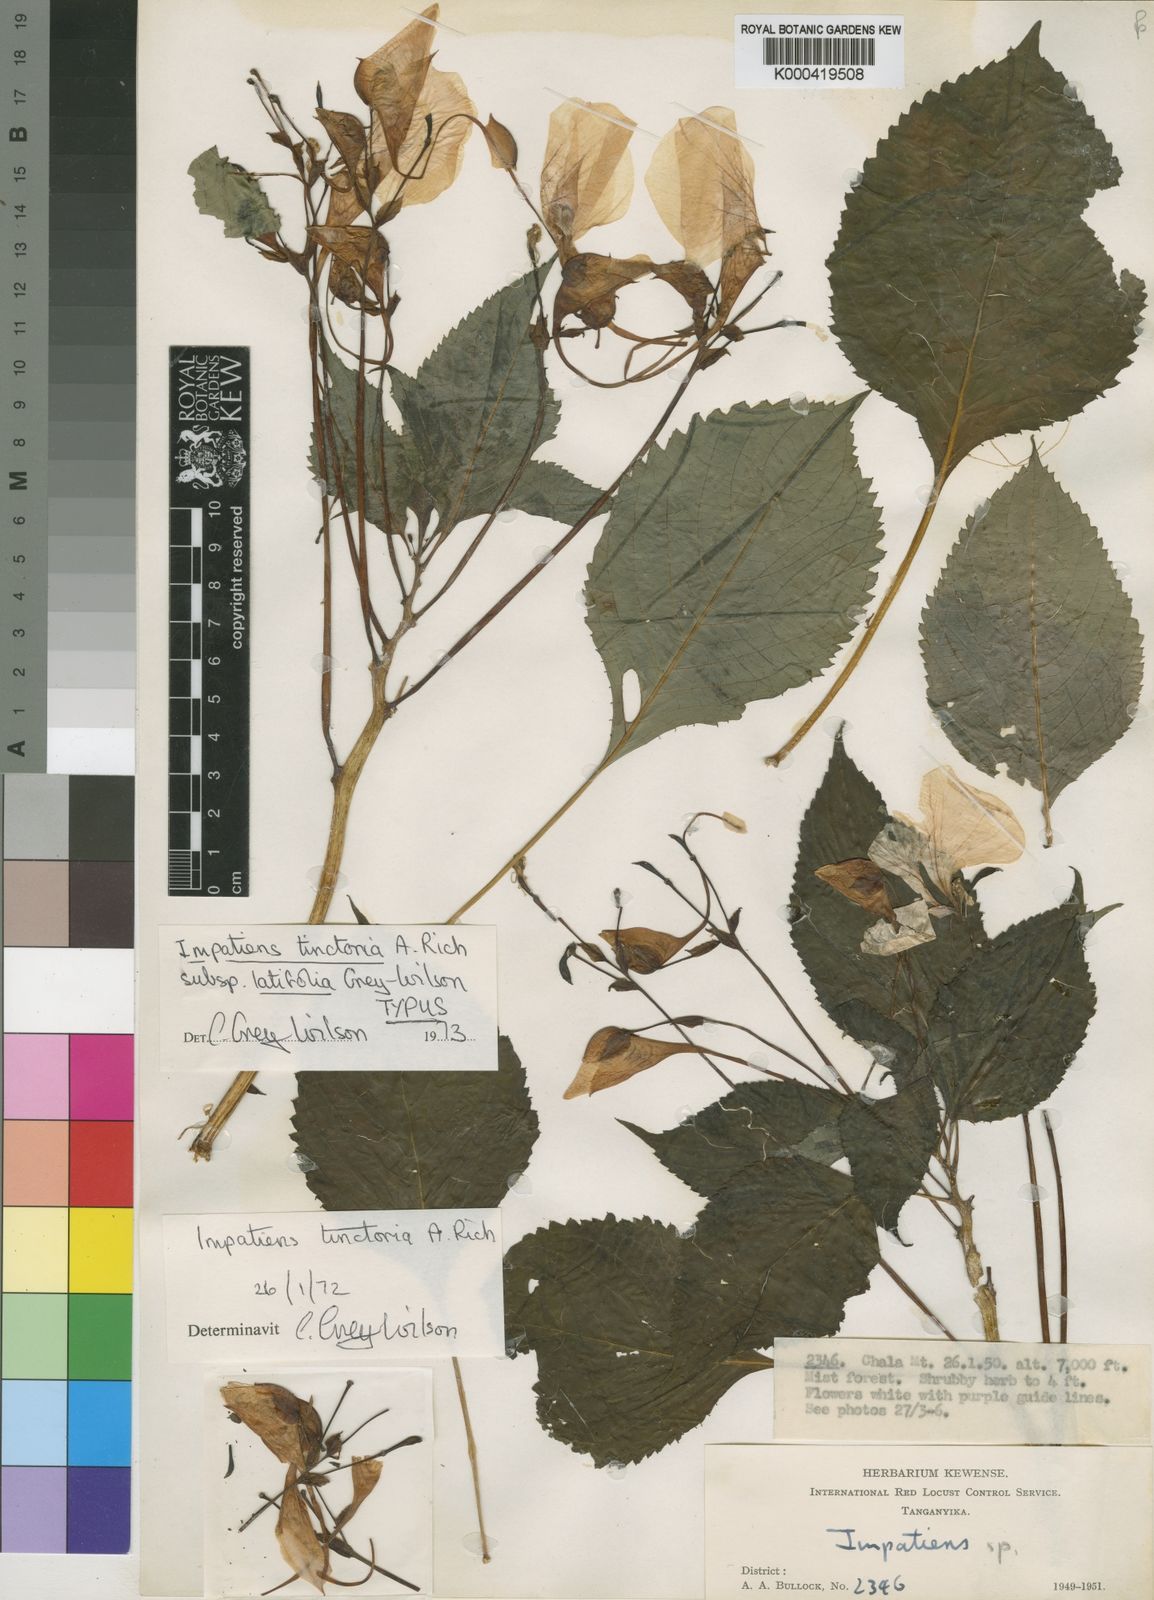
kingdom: Plantae
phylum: Tracheophyta
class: Magnoliopsida
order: Ericales
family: Balsaminaceae
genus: Impatiens
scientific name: Impatiens tinctoria
